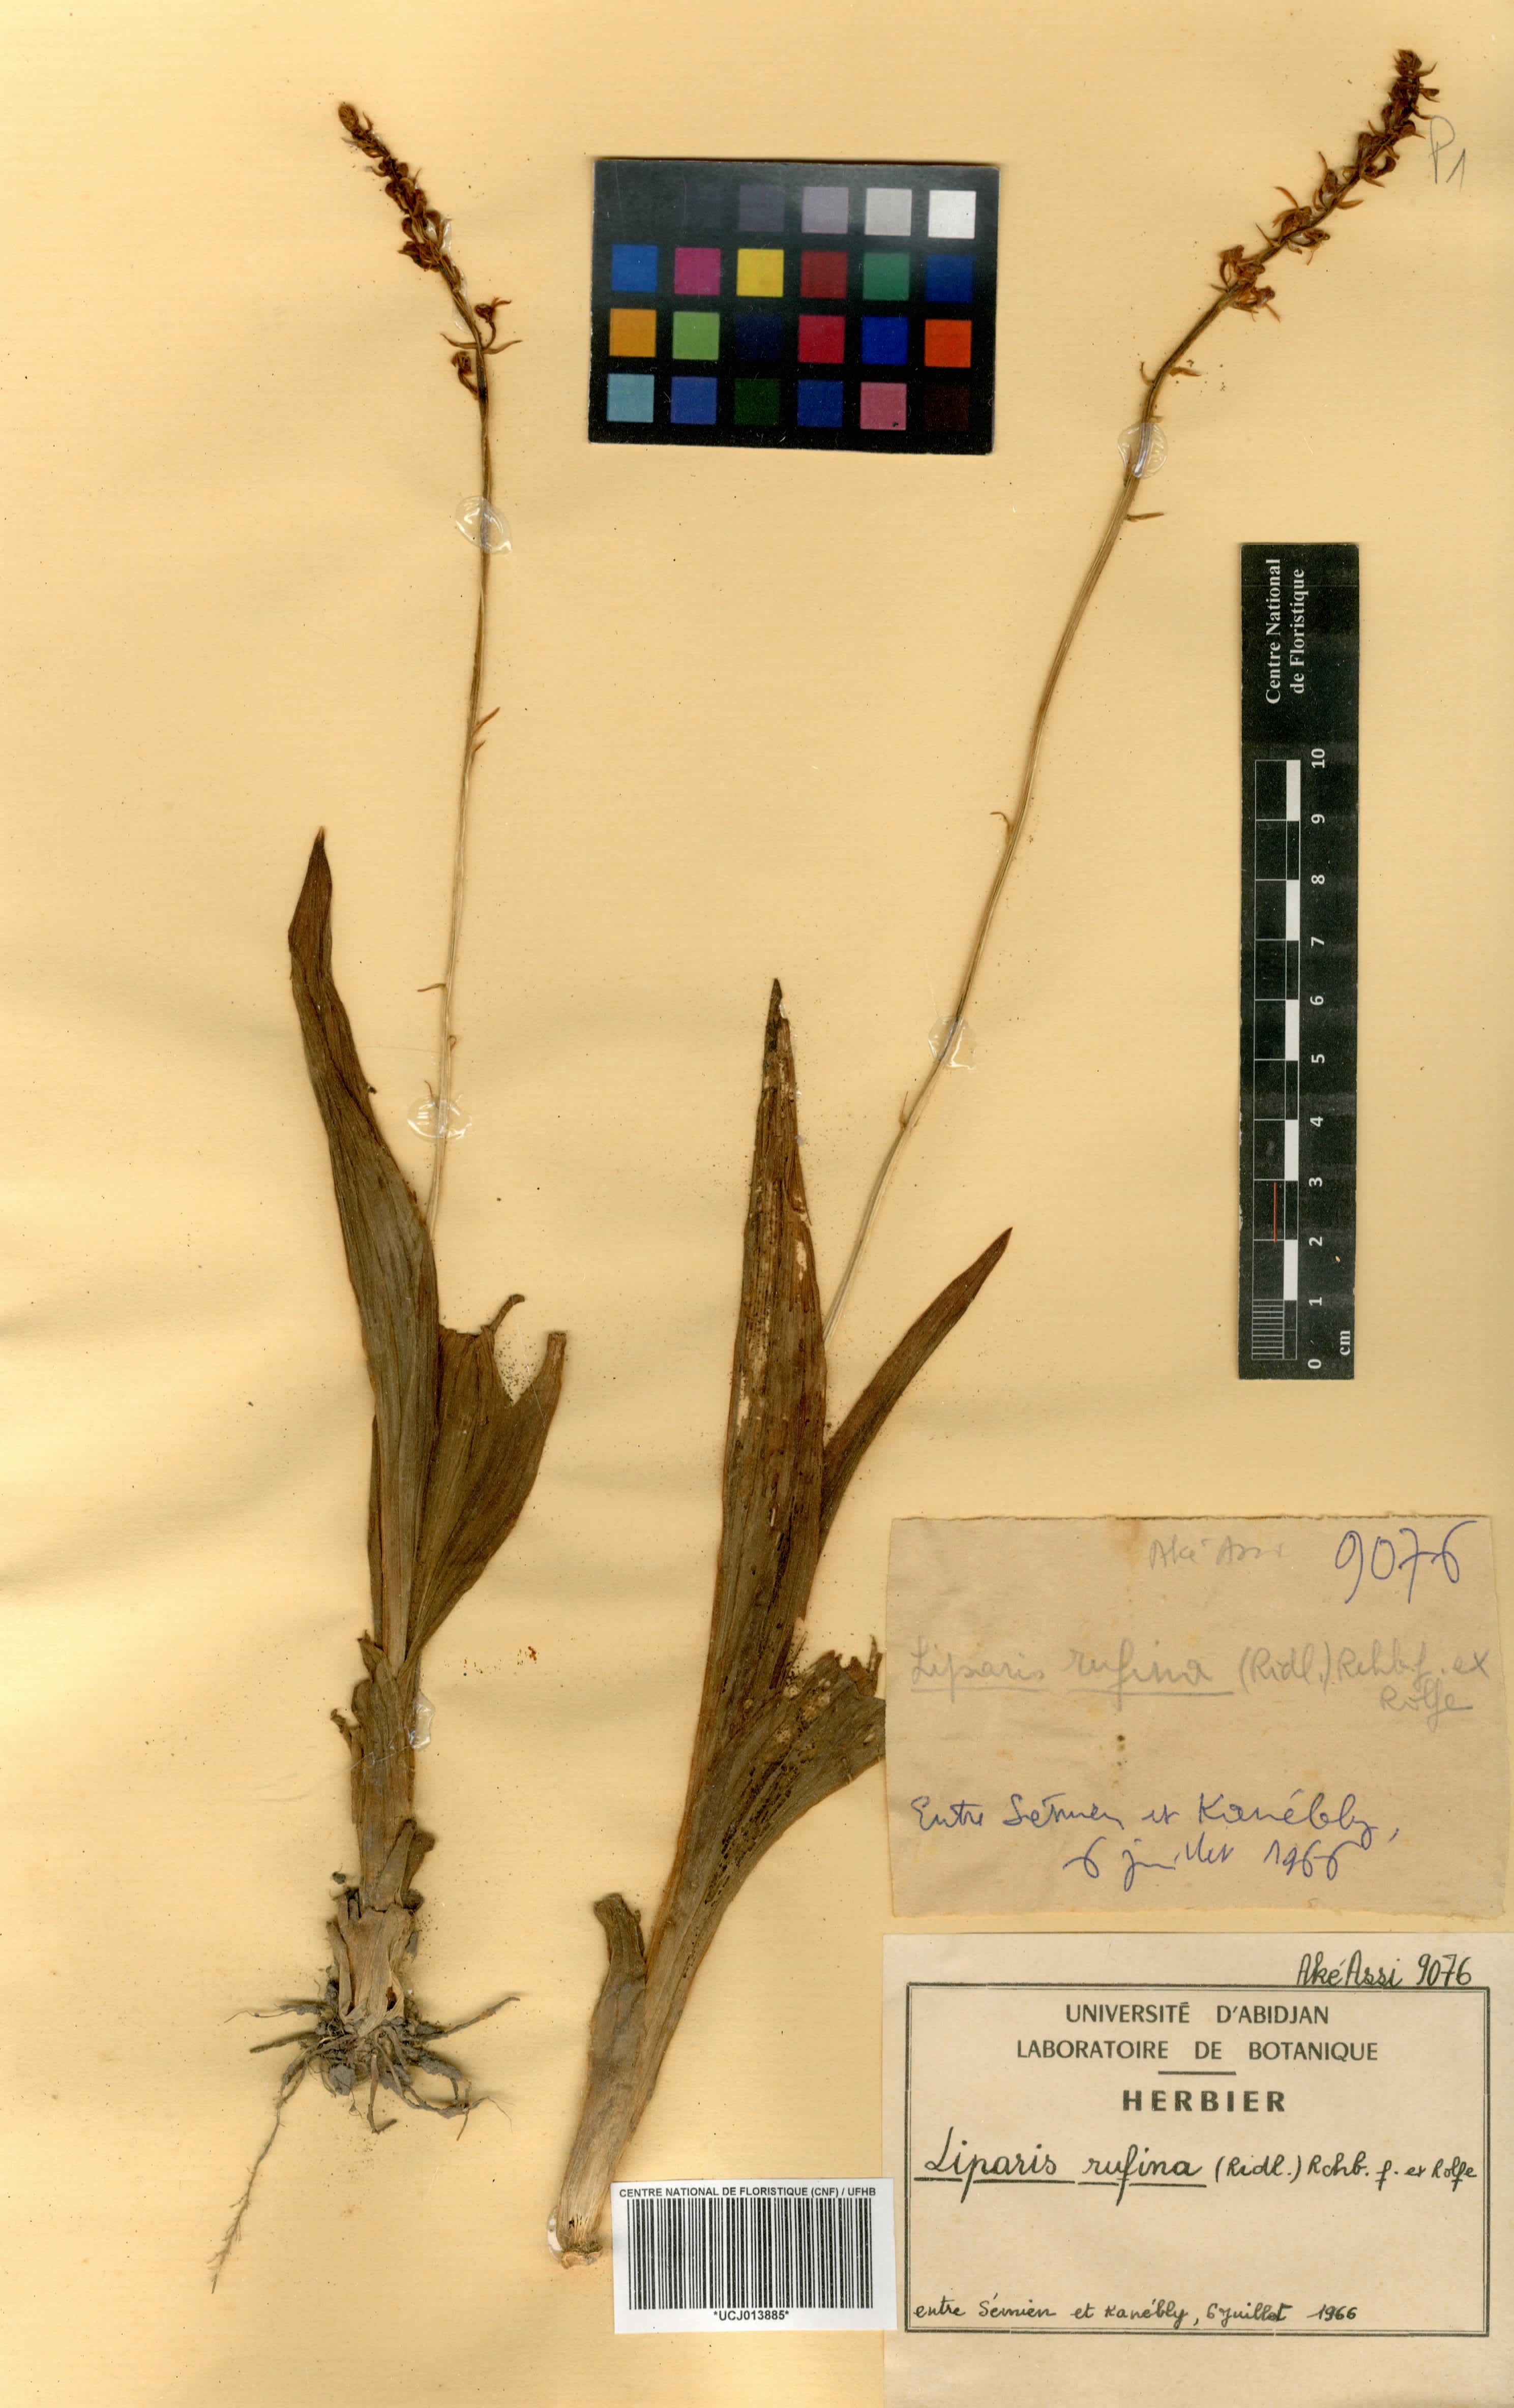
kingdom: Plantae
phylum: Tracheophyta
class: Liliopsida
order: Asparagales
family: Orchidaceae
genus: Liparis
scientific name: Liparis rufina
